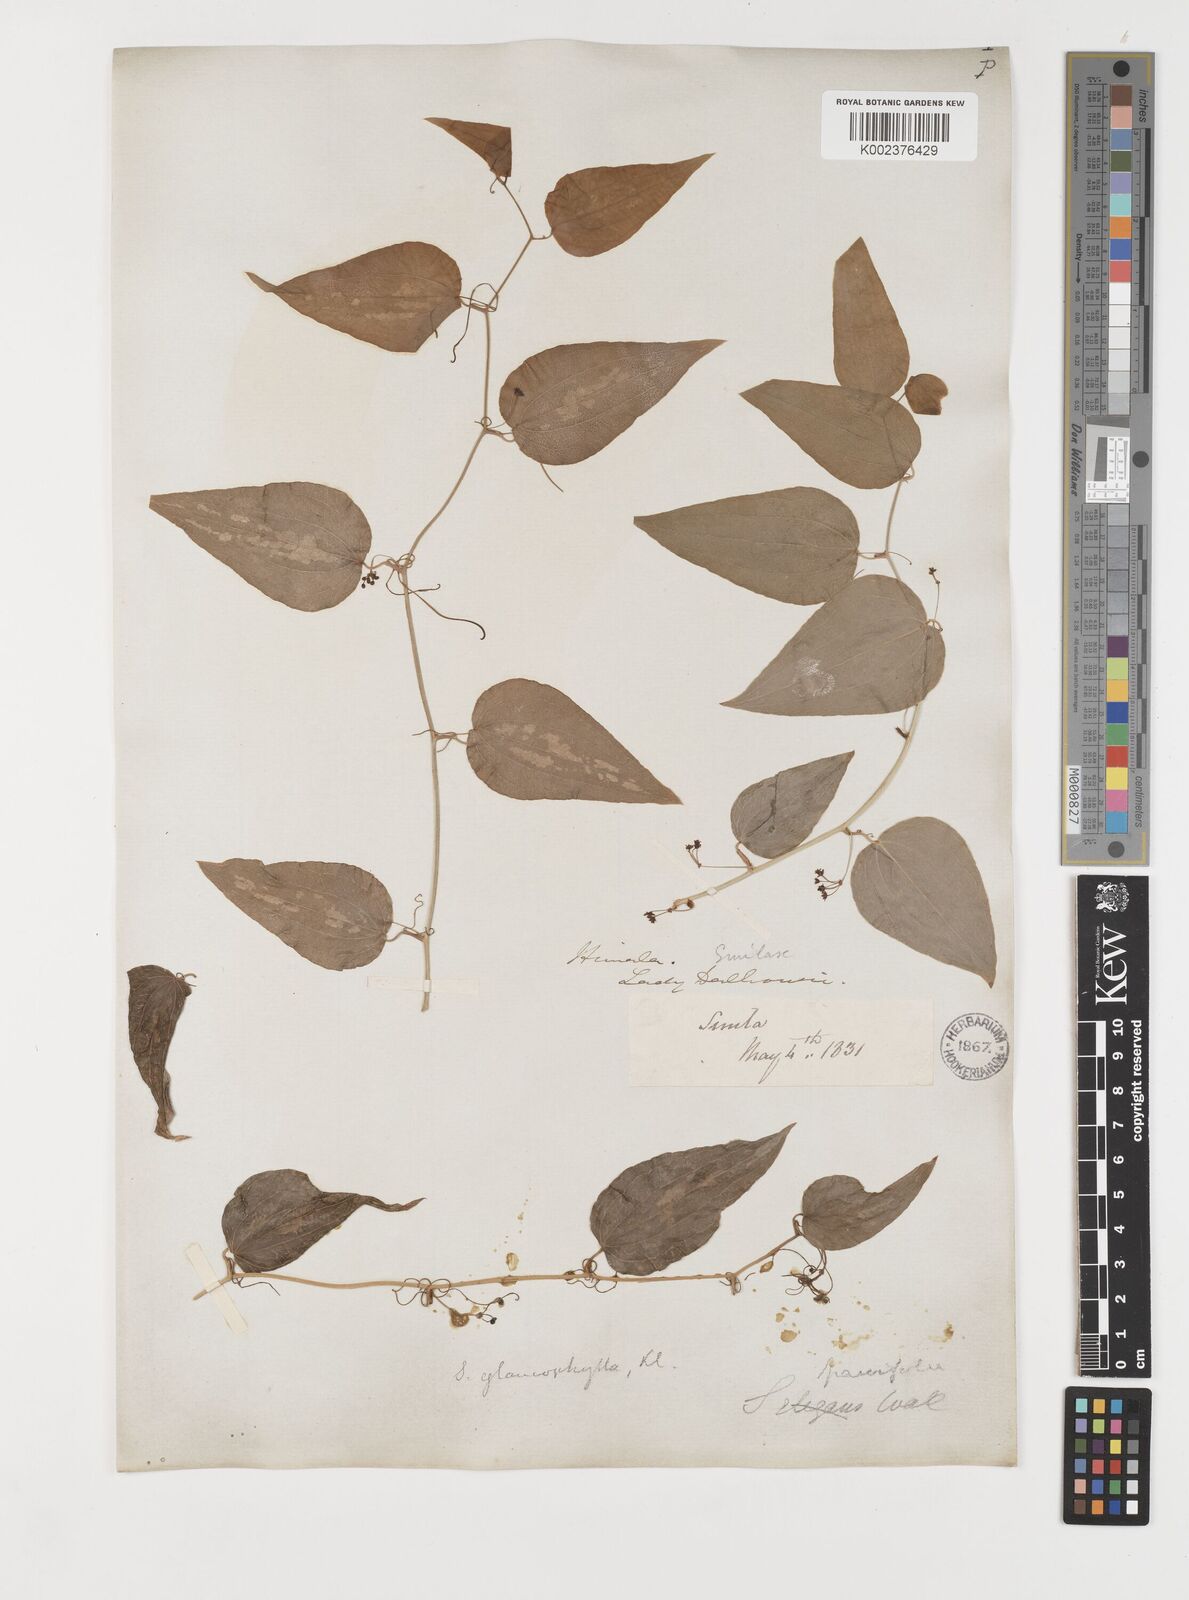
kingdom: Plantae
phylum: Tracheophyta
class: Liliopsida
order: Liliales
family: Smilacaceae
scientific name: Smilacaceae
